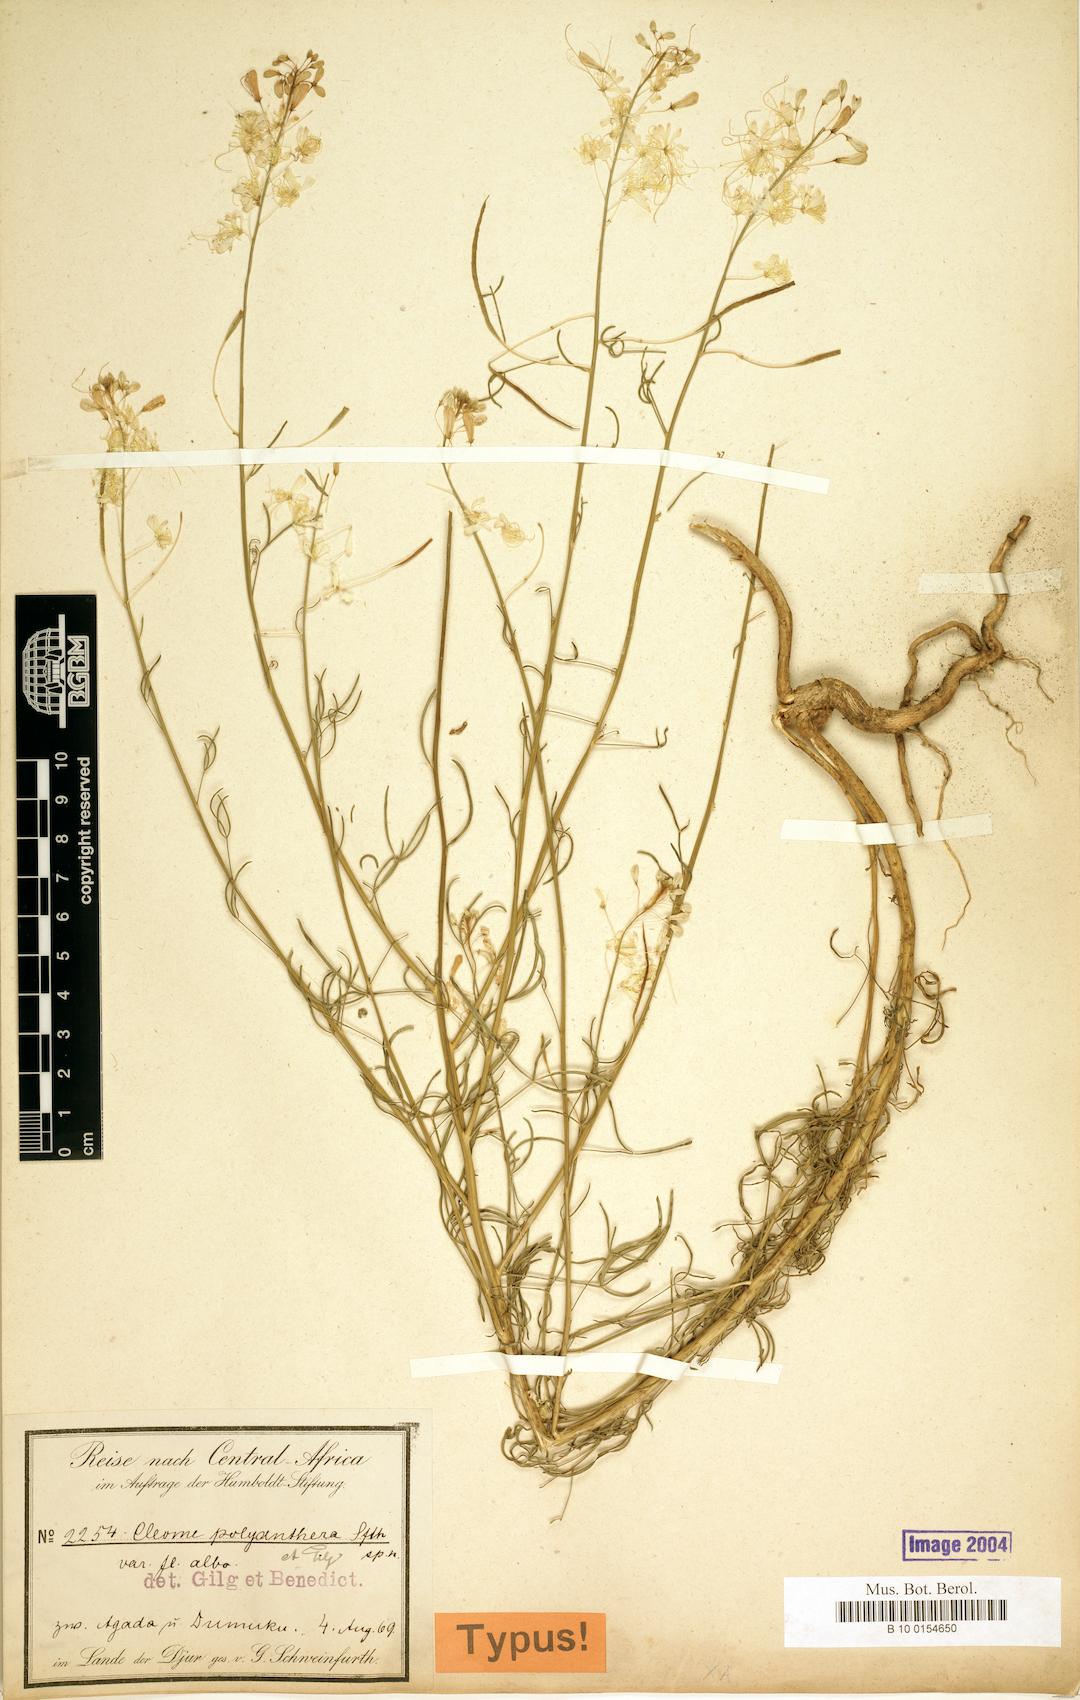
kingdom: Plantae
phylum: Tracheophyta
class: Magnoliopsida
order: Brassicales
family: Cleomaceae
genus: Coalisina
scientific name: Coalisina polyanthera
